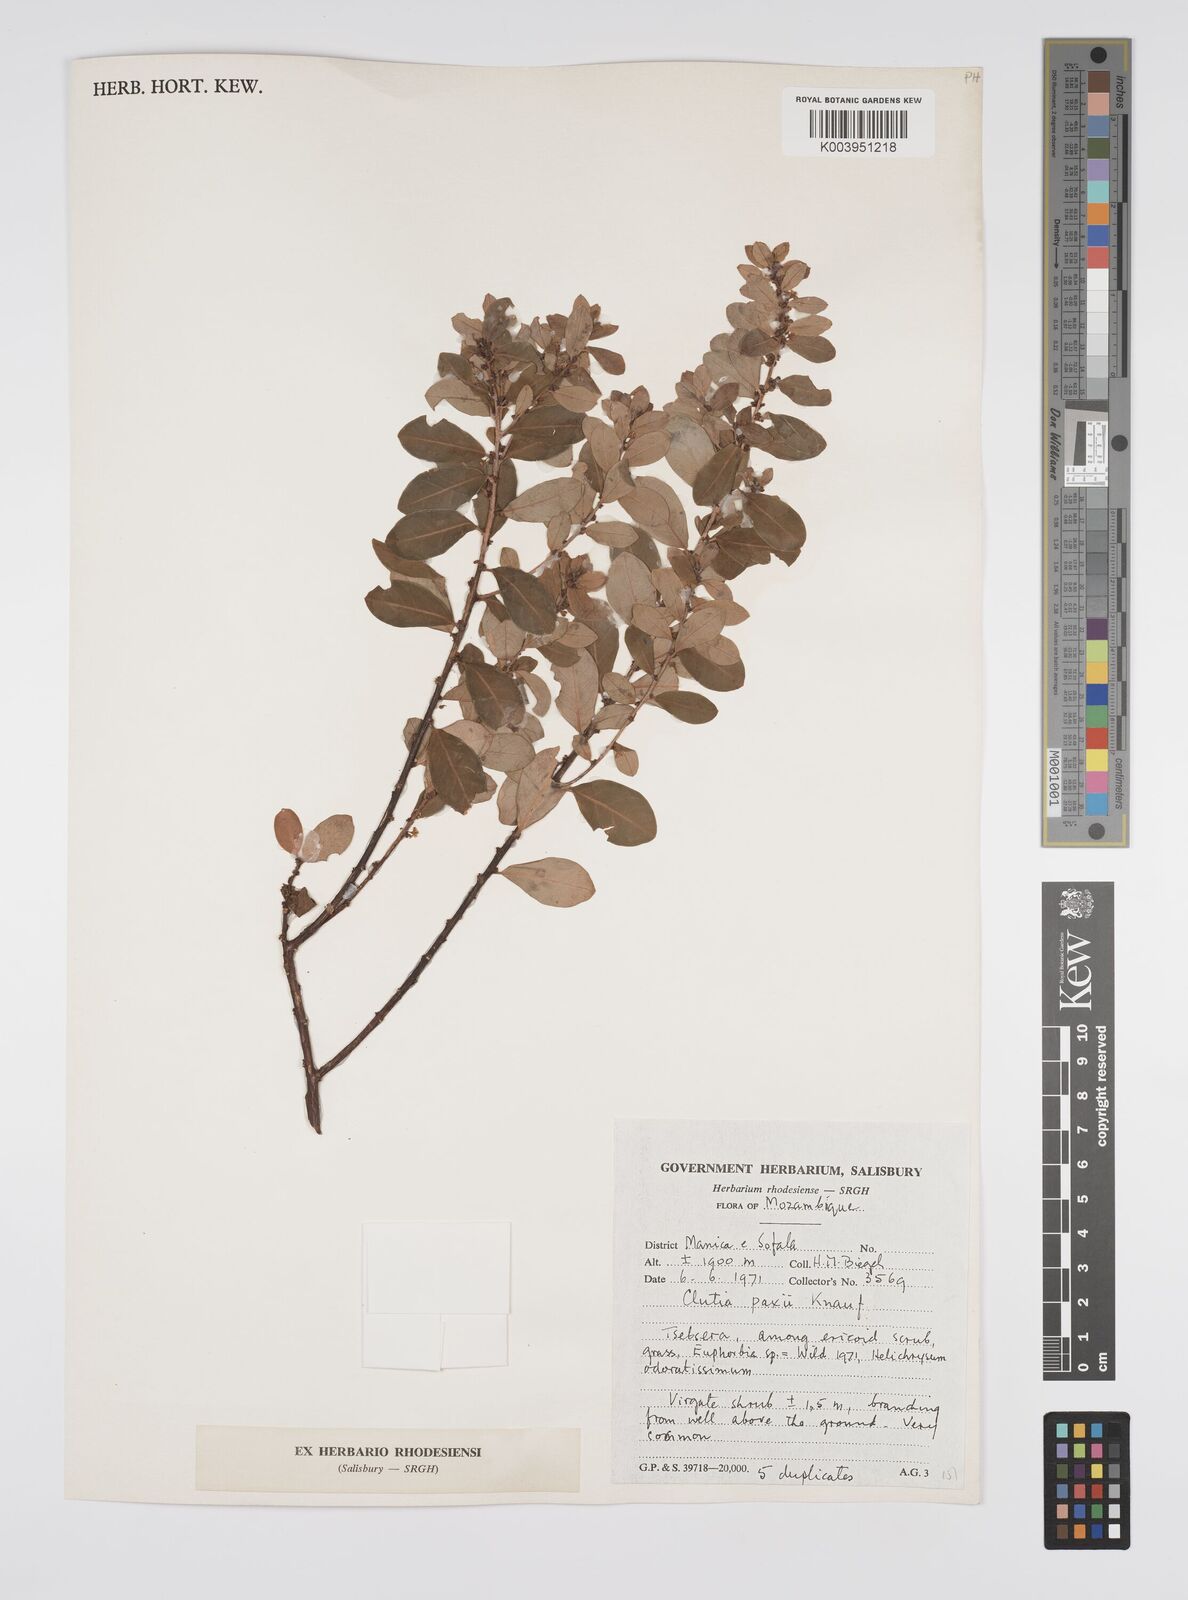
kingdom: Plantae
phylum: Tracheophyta
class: Magnoliopsida
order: Malpighiales
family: Peraceae
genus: Clutia
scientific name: Clutia paxii
